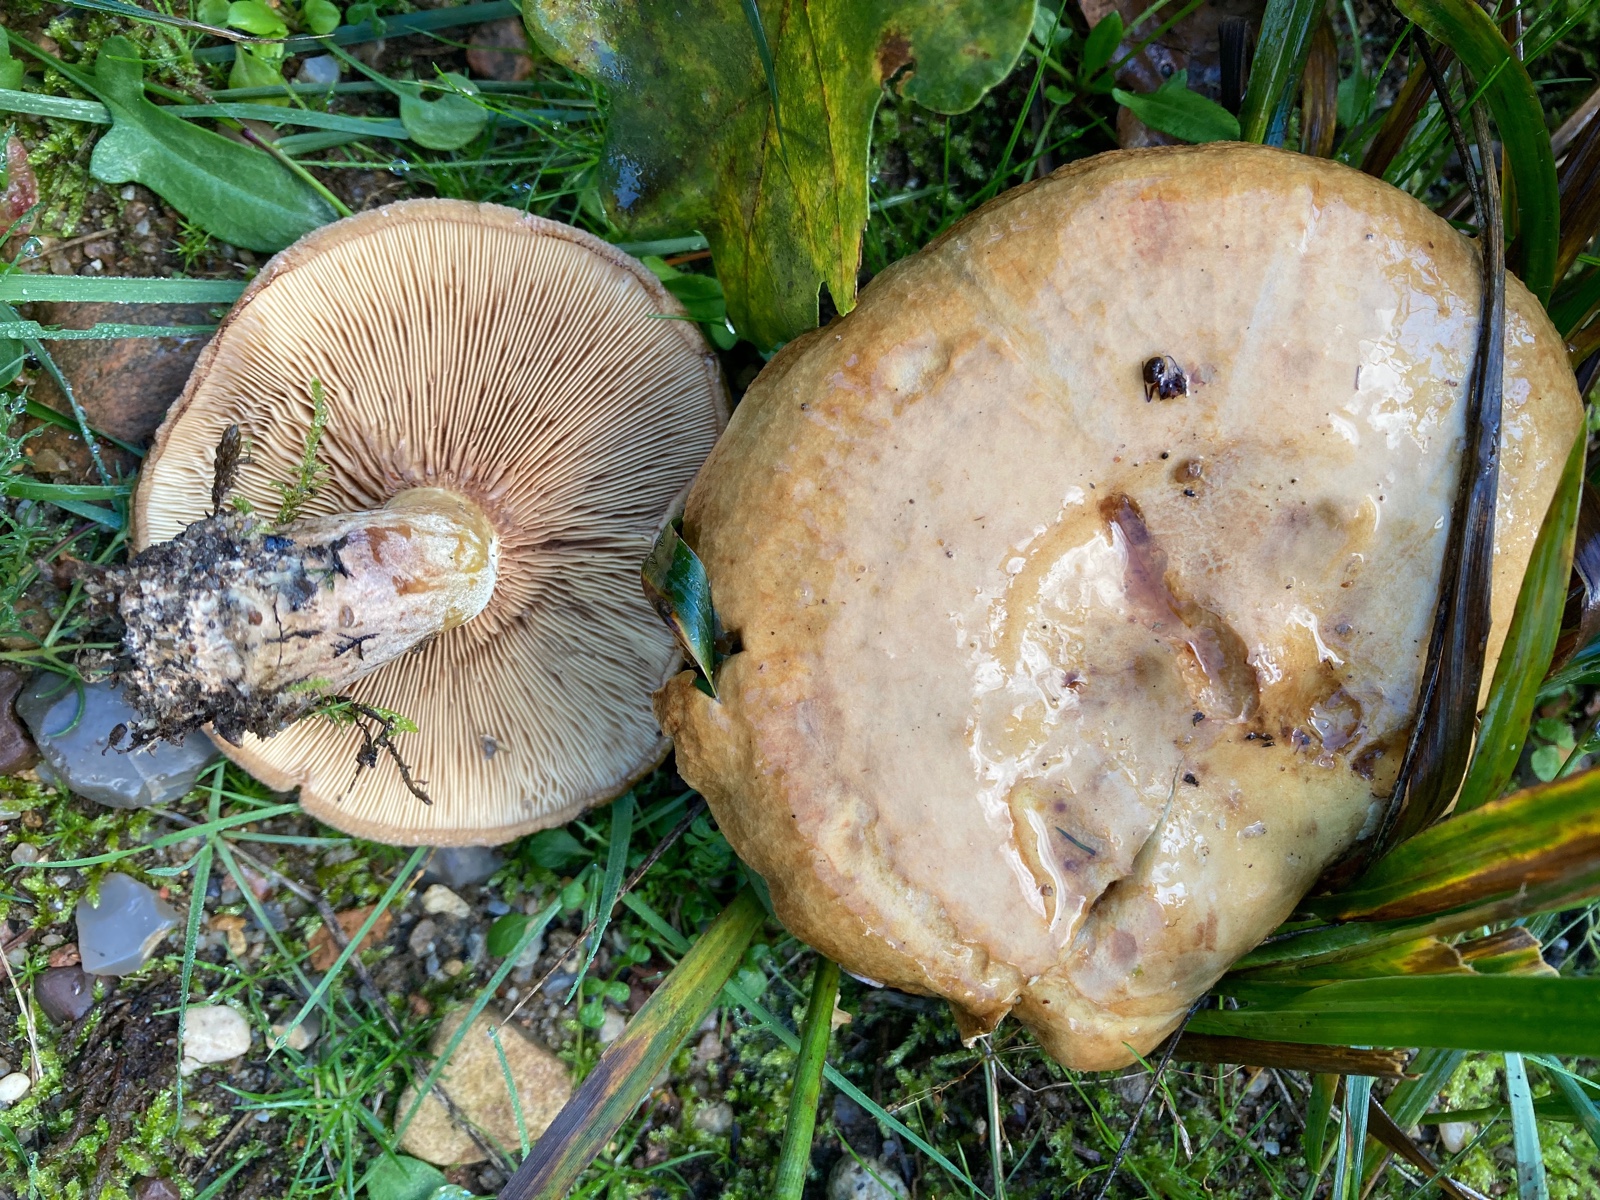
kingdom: Fungi
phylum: Basidiomycota
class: Agaricomycetes
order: Boletales
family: Paxillaceae
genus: Paxillus
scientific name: Paxillus involutus
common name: almindelig netbladhat
